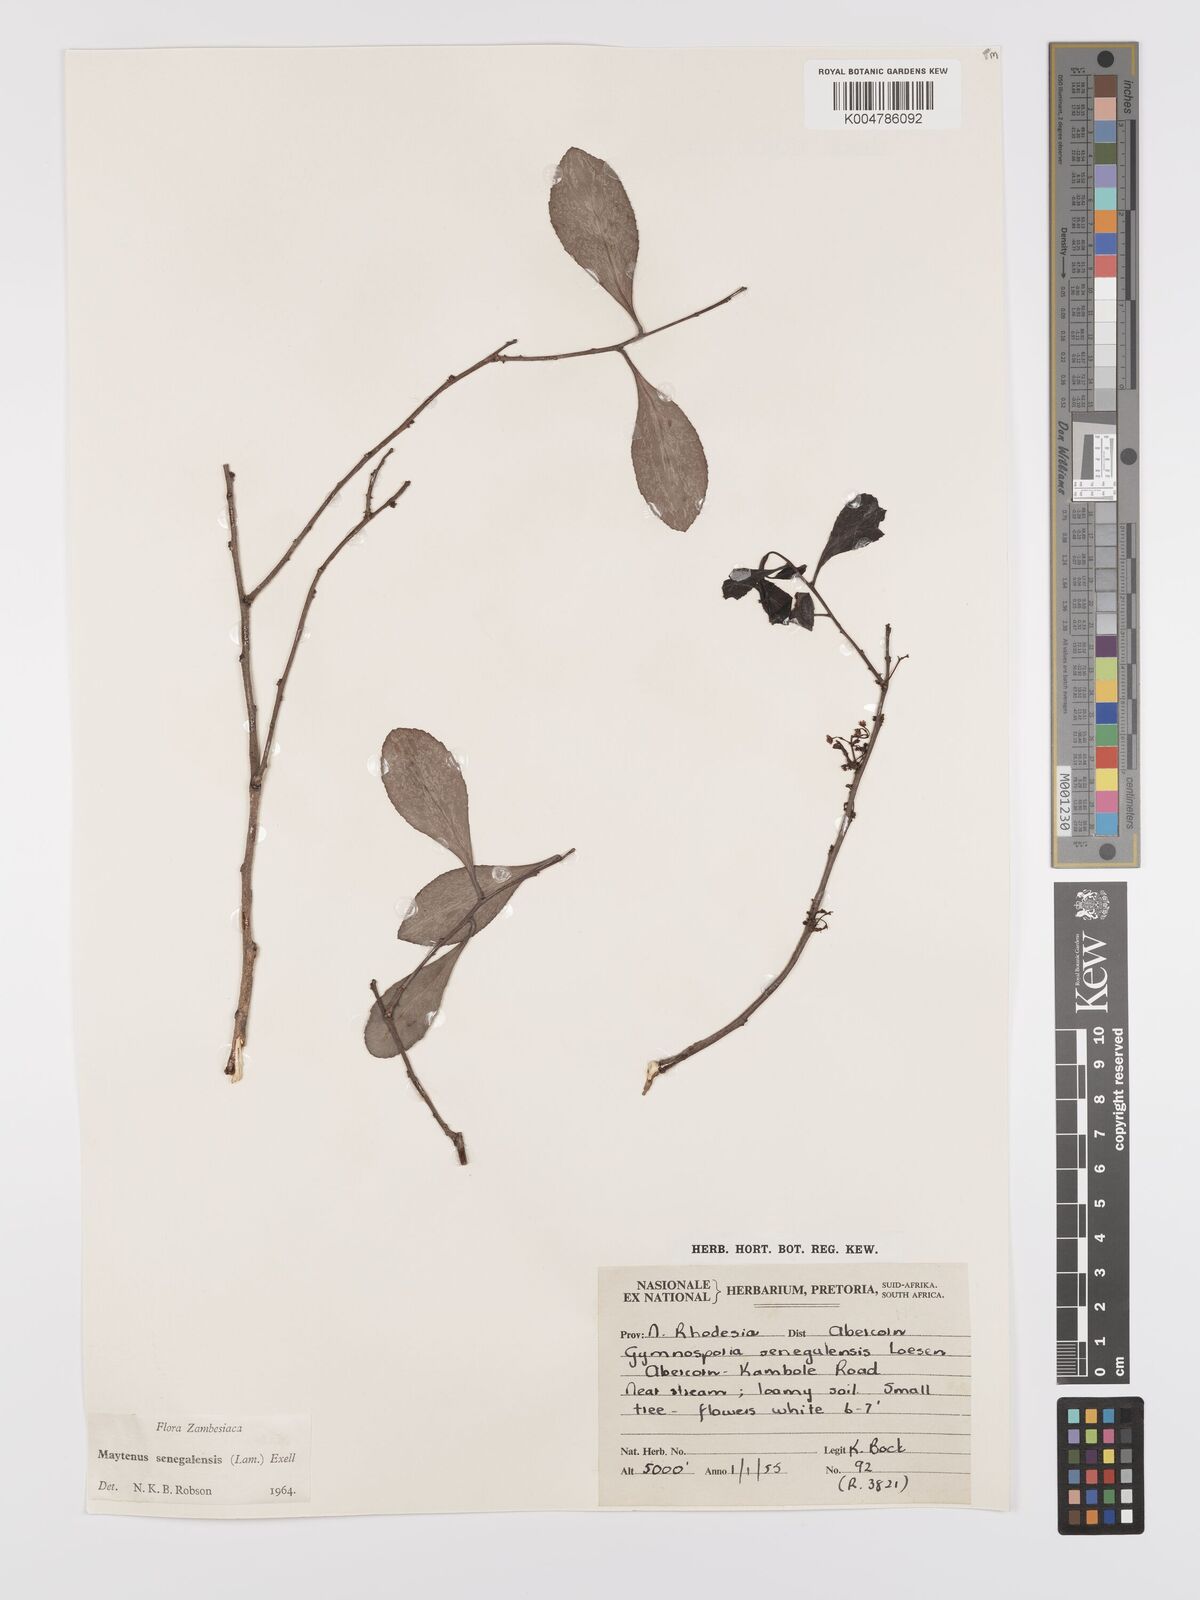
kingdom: Plantae
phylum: Tracheophyta
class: Magnoliopsida
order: Celastrales
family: Celastraceae
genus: Gymnosporia
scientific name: Gymnosporia senegalensis
